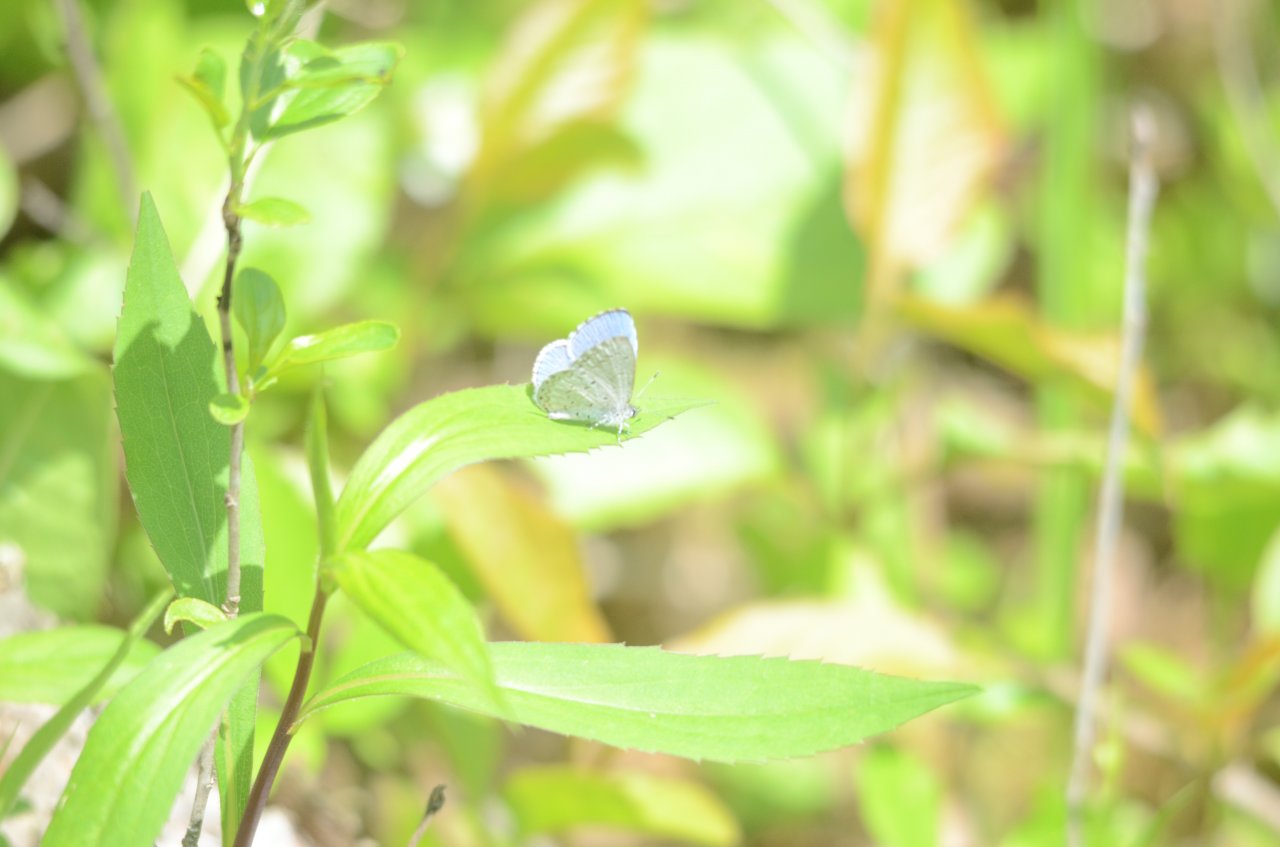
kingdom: Animalia
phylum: Arthropoda
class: Insecta
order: Lepidoptera
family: Lycaenidae
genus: Celastrina
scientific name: Celastrina
